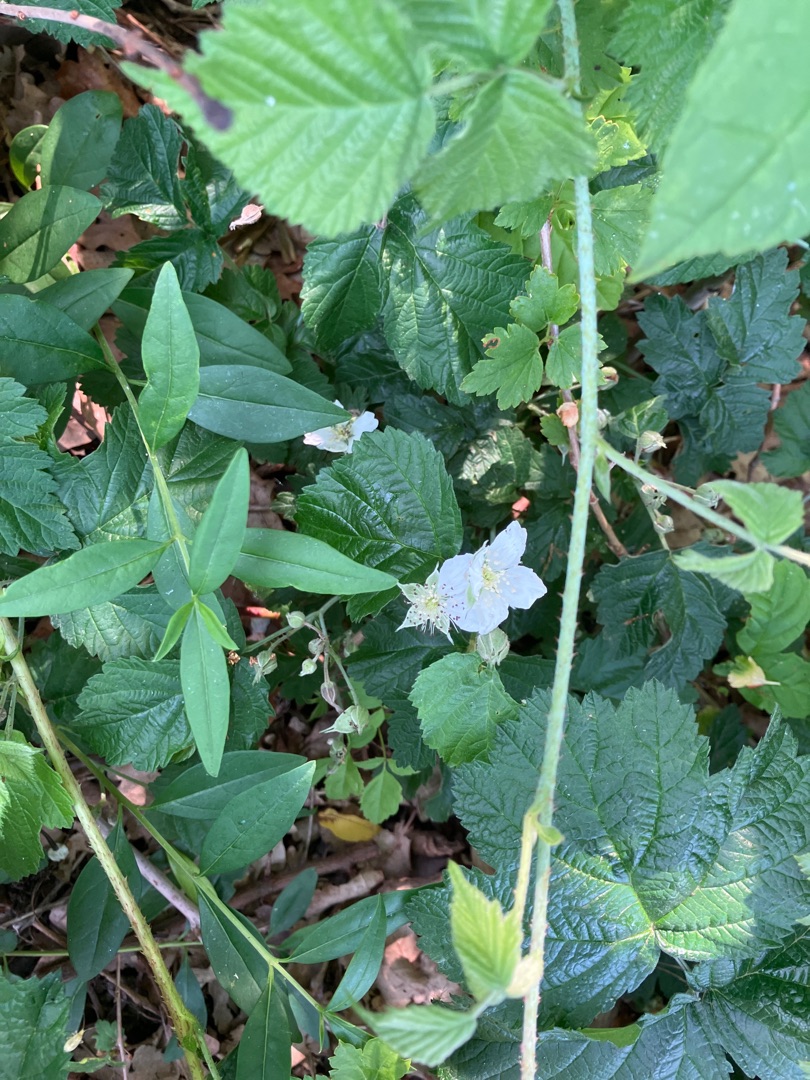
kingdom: Plantae
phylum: Tracheophyta
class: Magnoliopsida
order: Rosales
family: Rosaceae
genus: Rubus
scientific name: Rubus caesius
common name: Korbær
